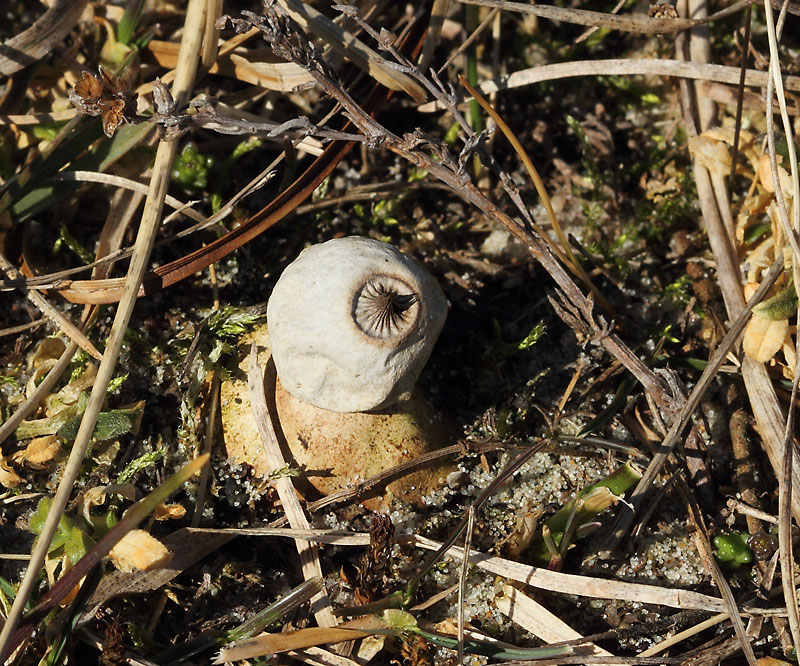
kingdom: Fungi
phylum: Basidiomycota
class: Agaricomycetes
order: Geastrales
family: Geastraceae
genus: Geastrum
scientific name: Geastrum striatum
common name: dværg-stjernebold
